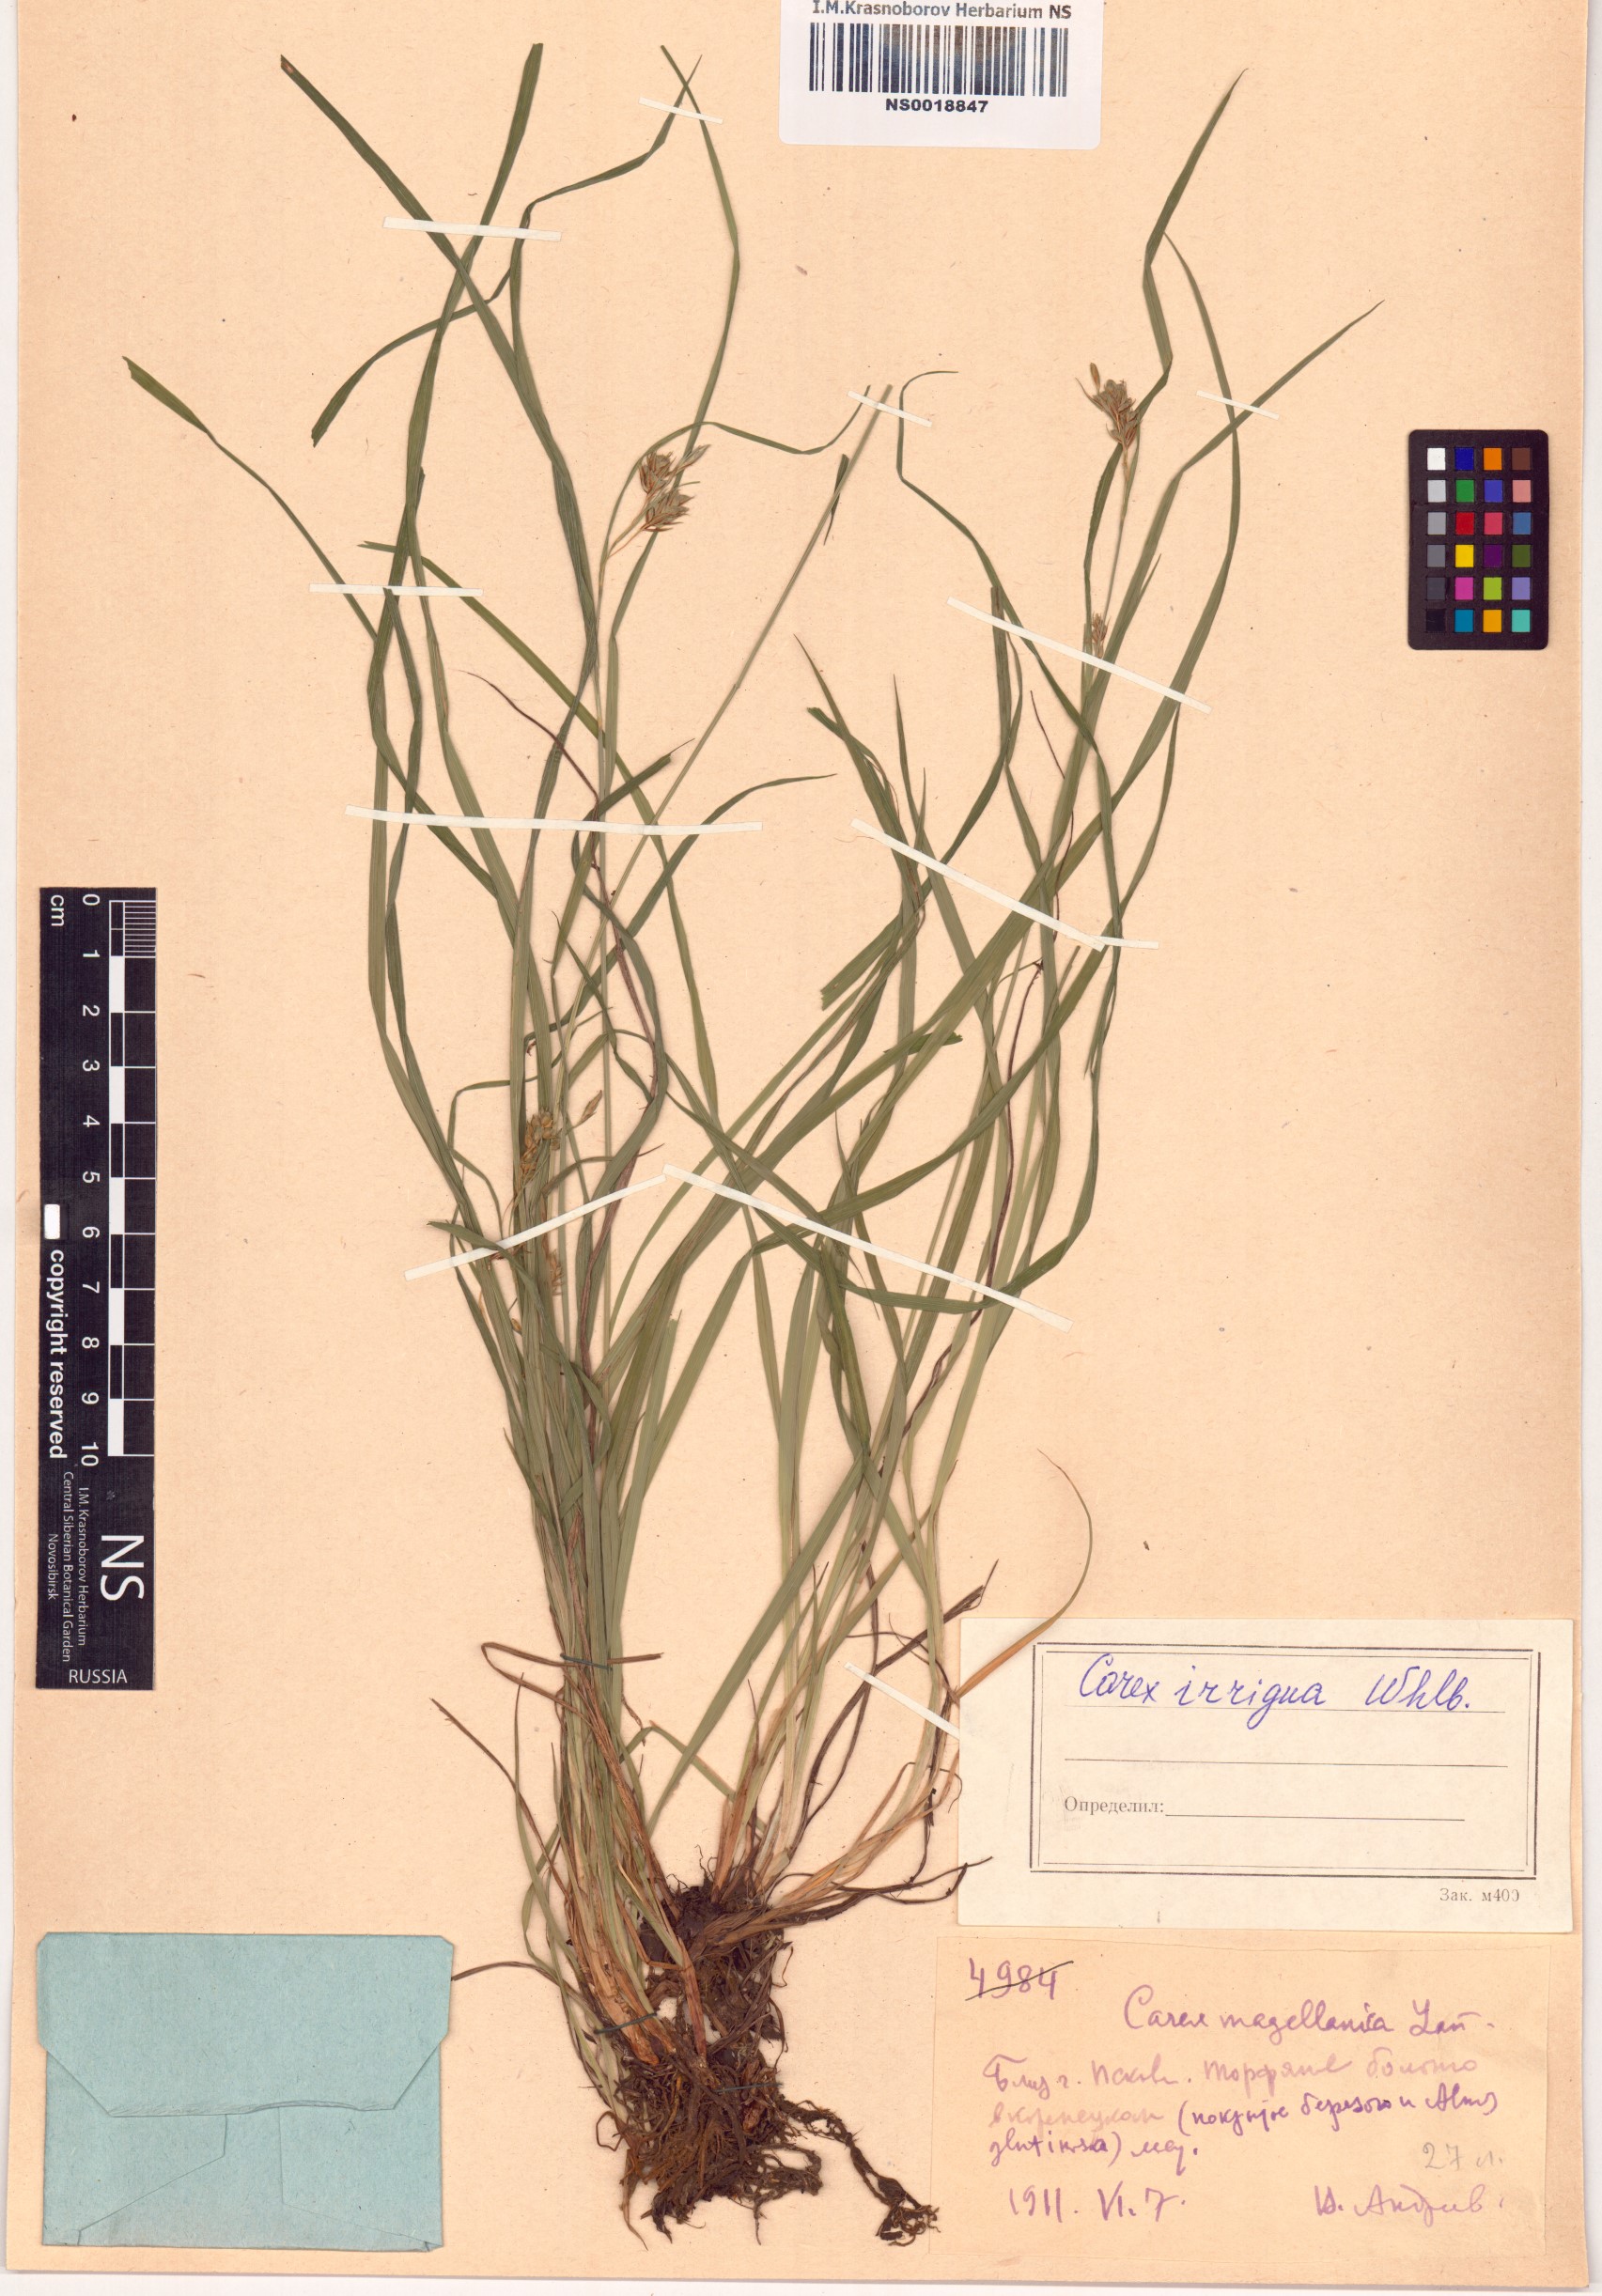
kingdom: Plantae
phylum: Tracheophyta
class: Liliopsida
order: Poales
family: Cyperaceae
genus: Carex
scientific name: Carex magellanica
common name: Bog sedge
